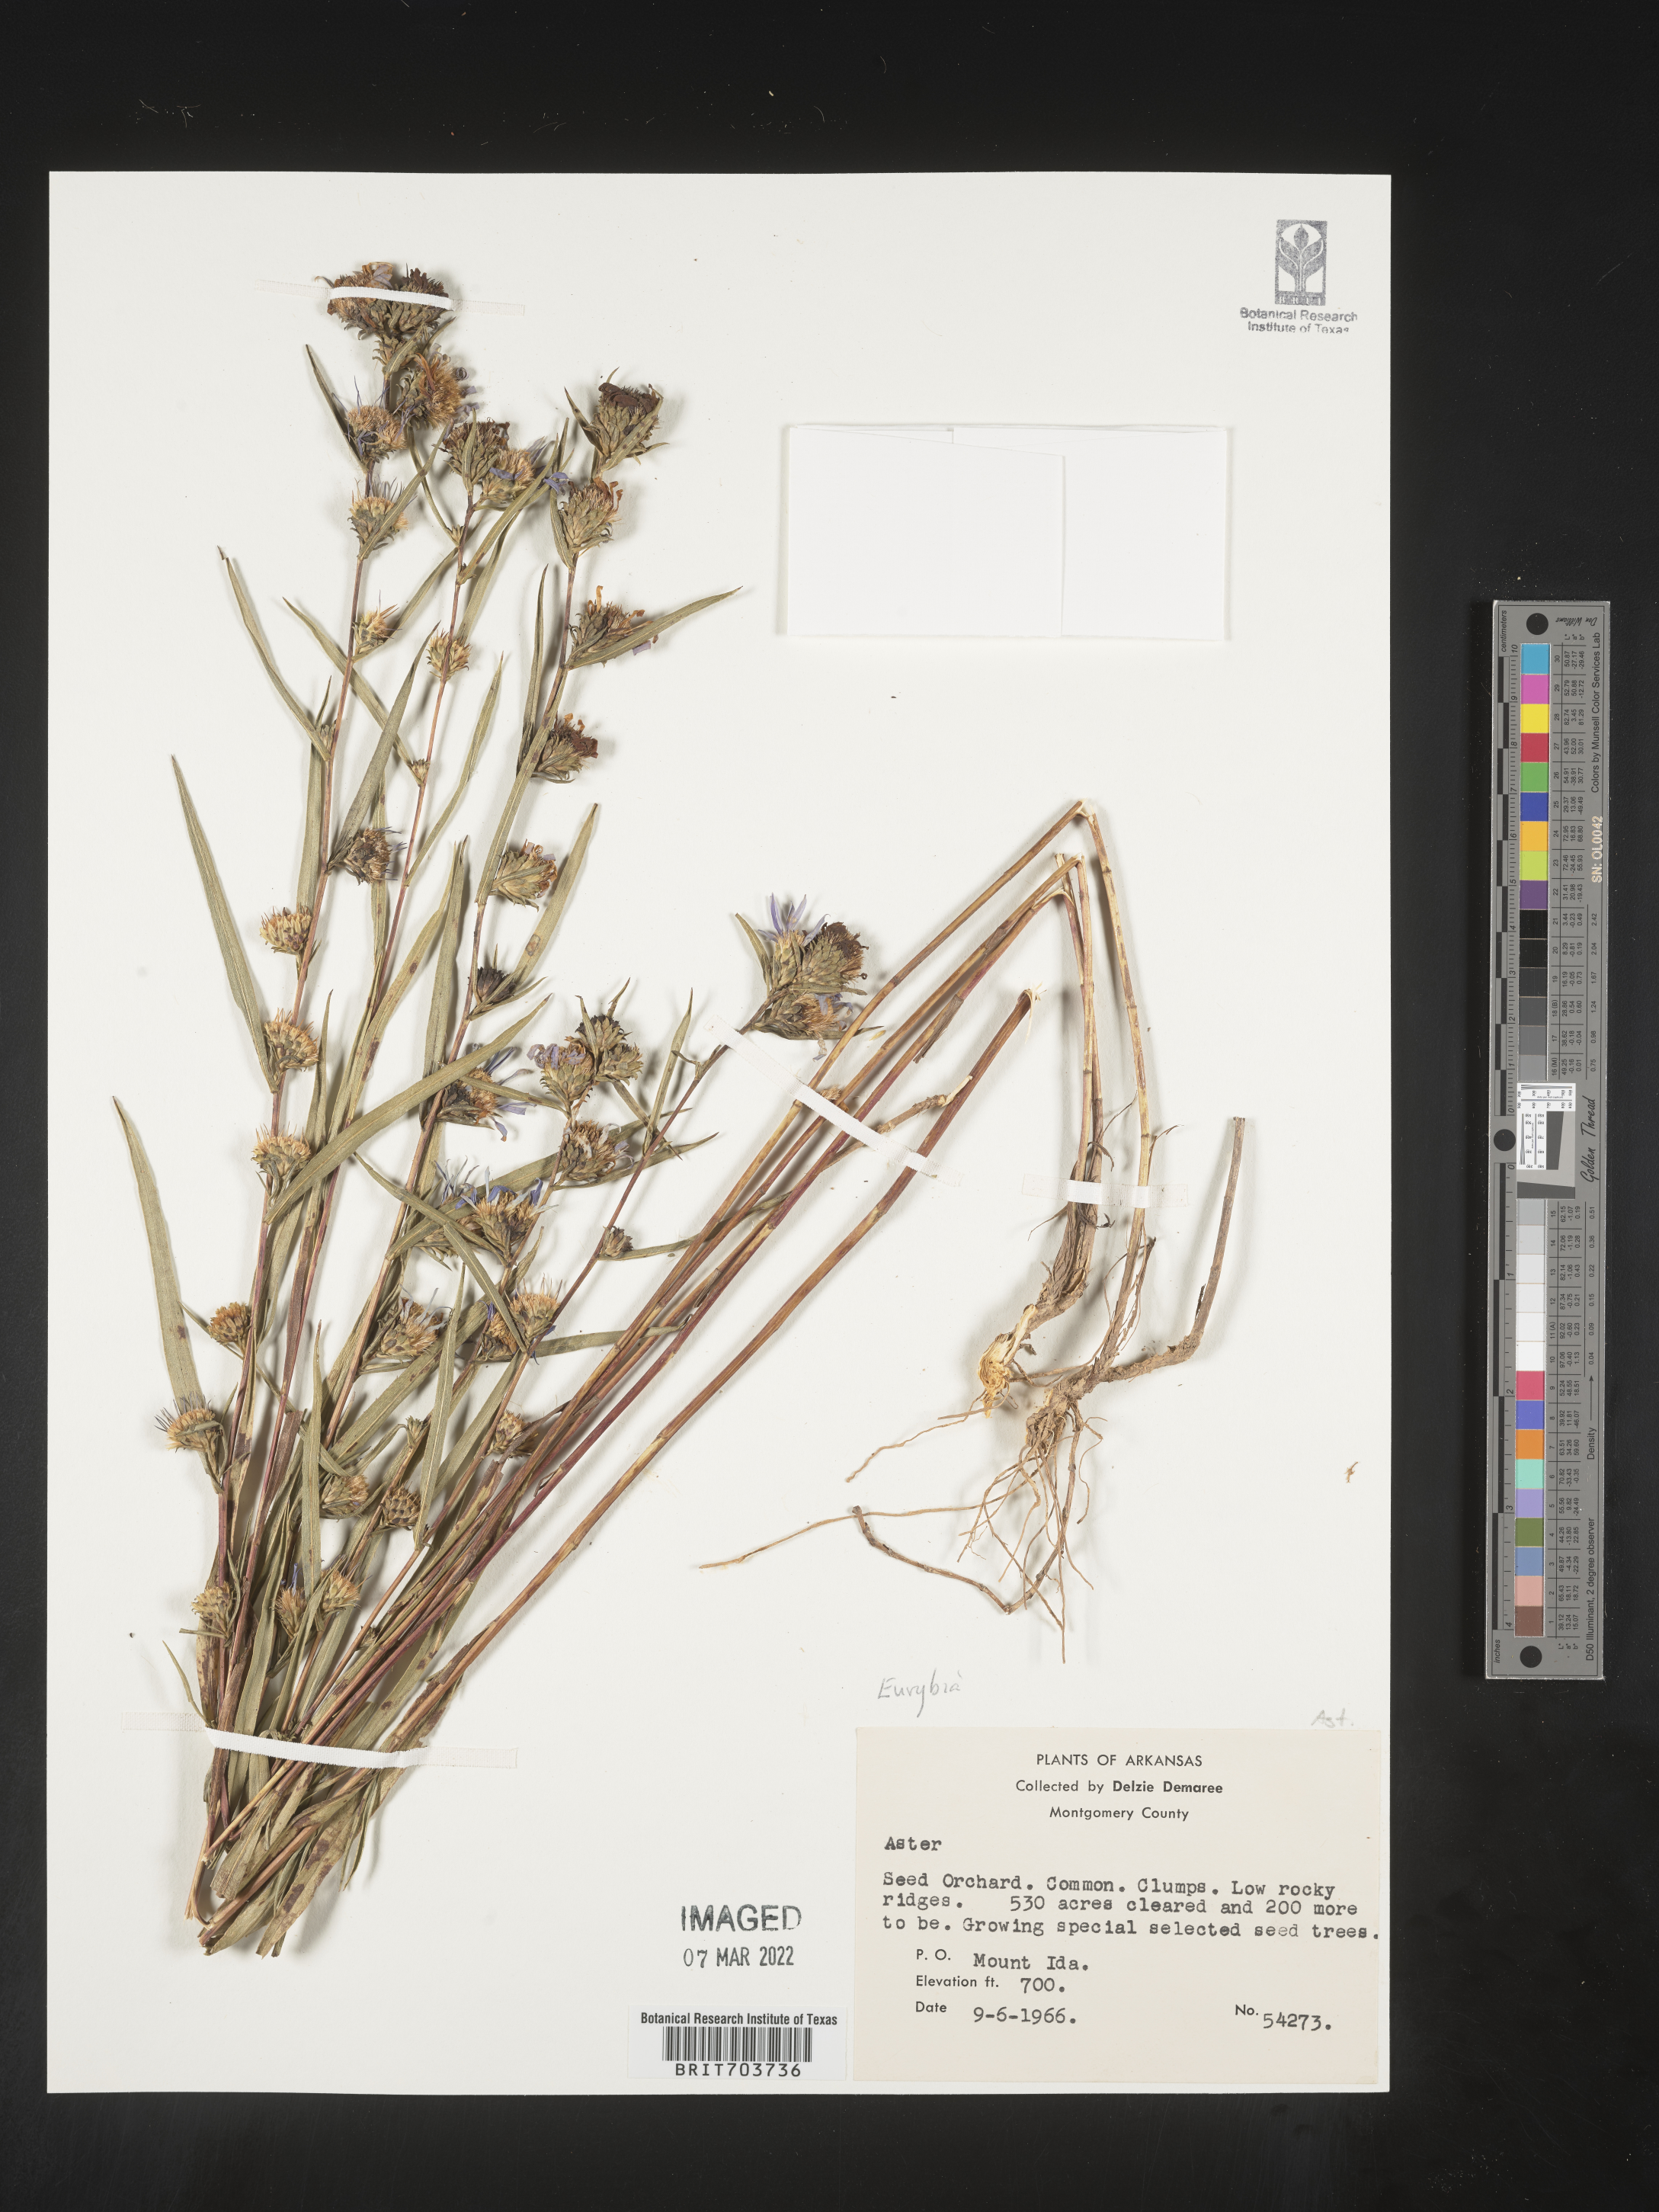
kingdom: Plantae
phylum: Tracheophyta
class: Magnoliopsida
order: Asterales
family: Asteraceae
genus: Eurybia
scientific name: Eurybia
